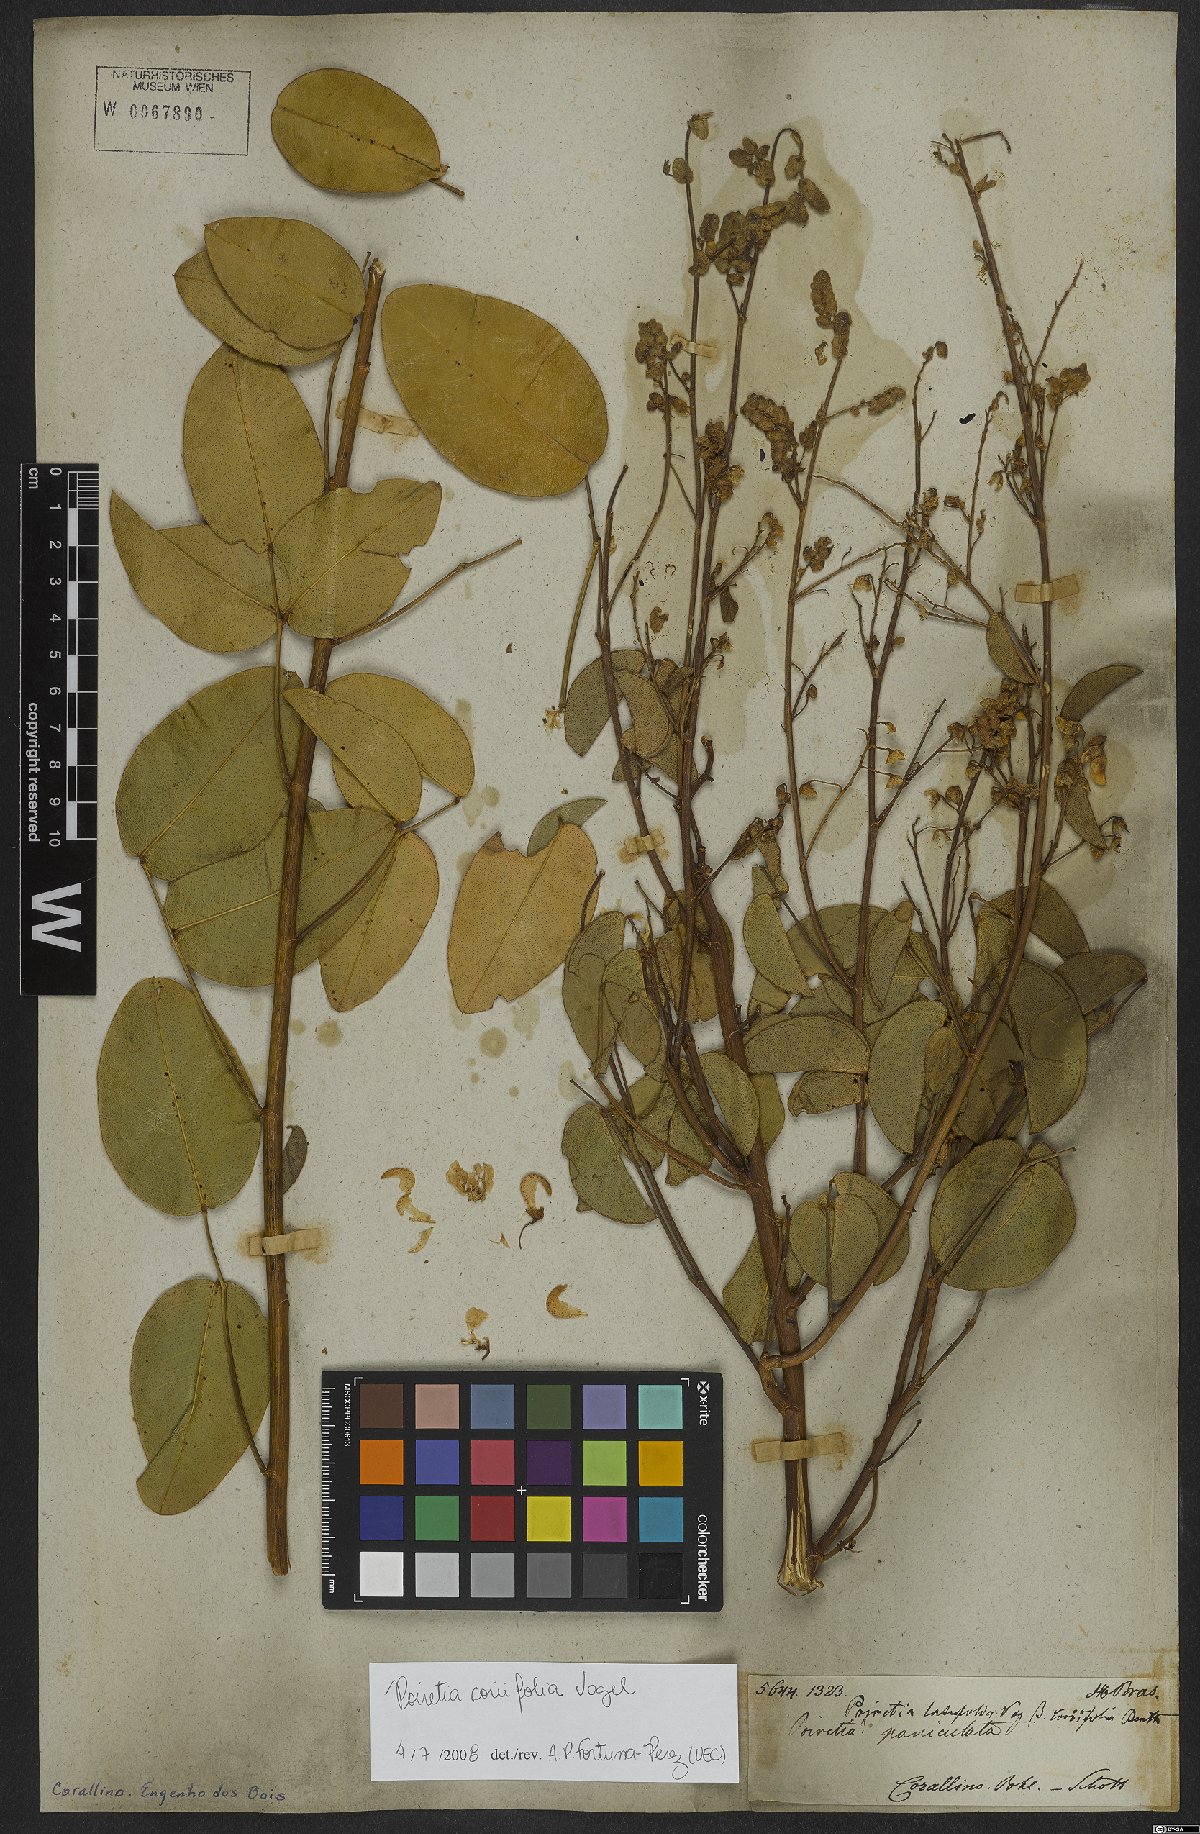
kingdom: Plantae
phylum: Tracheophyta
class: Magnoliopsida
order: Fabales
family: Fabaceae
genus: Poiretia
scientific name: Poiretia coriifolia
